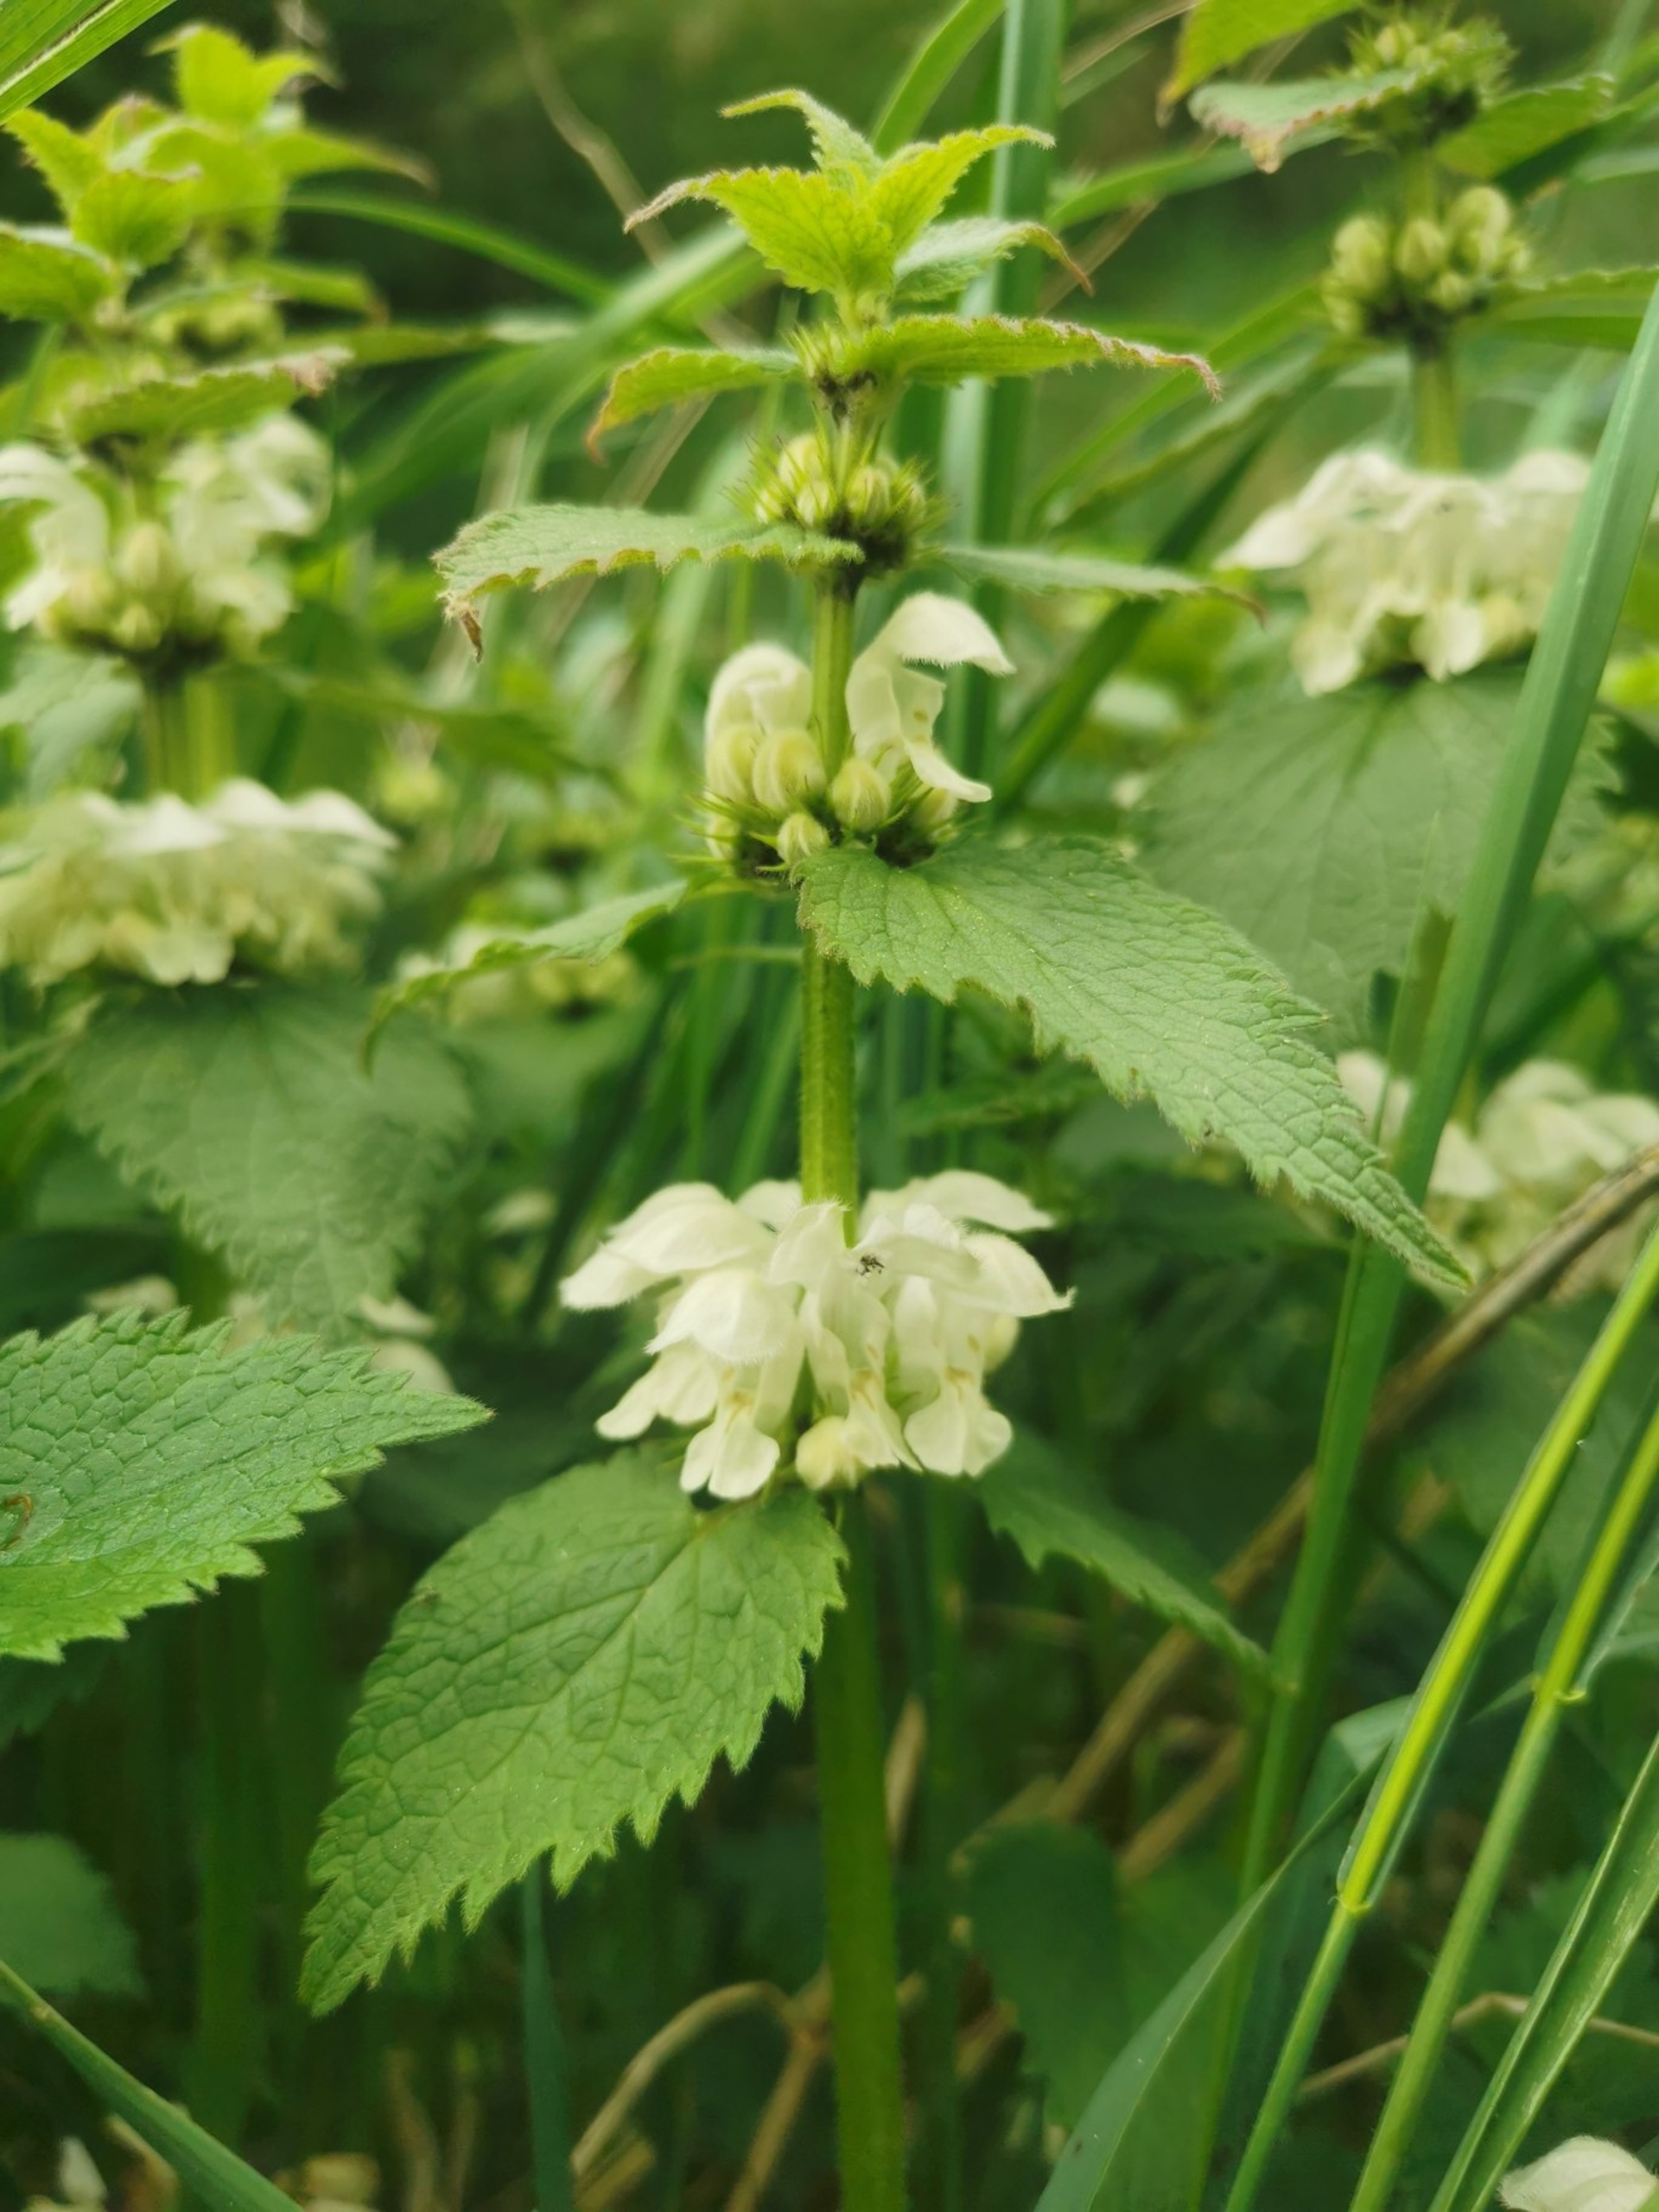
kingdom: Plantae
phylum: Tracheophyta
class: Magnoliopsida
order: Lamiales
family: Lamiaceae
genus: Lamium
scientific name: Lamium album
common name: Døvnælde
